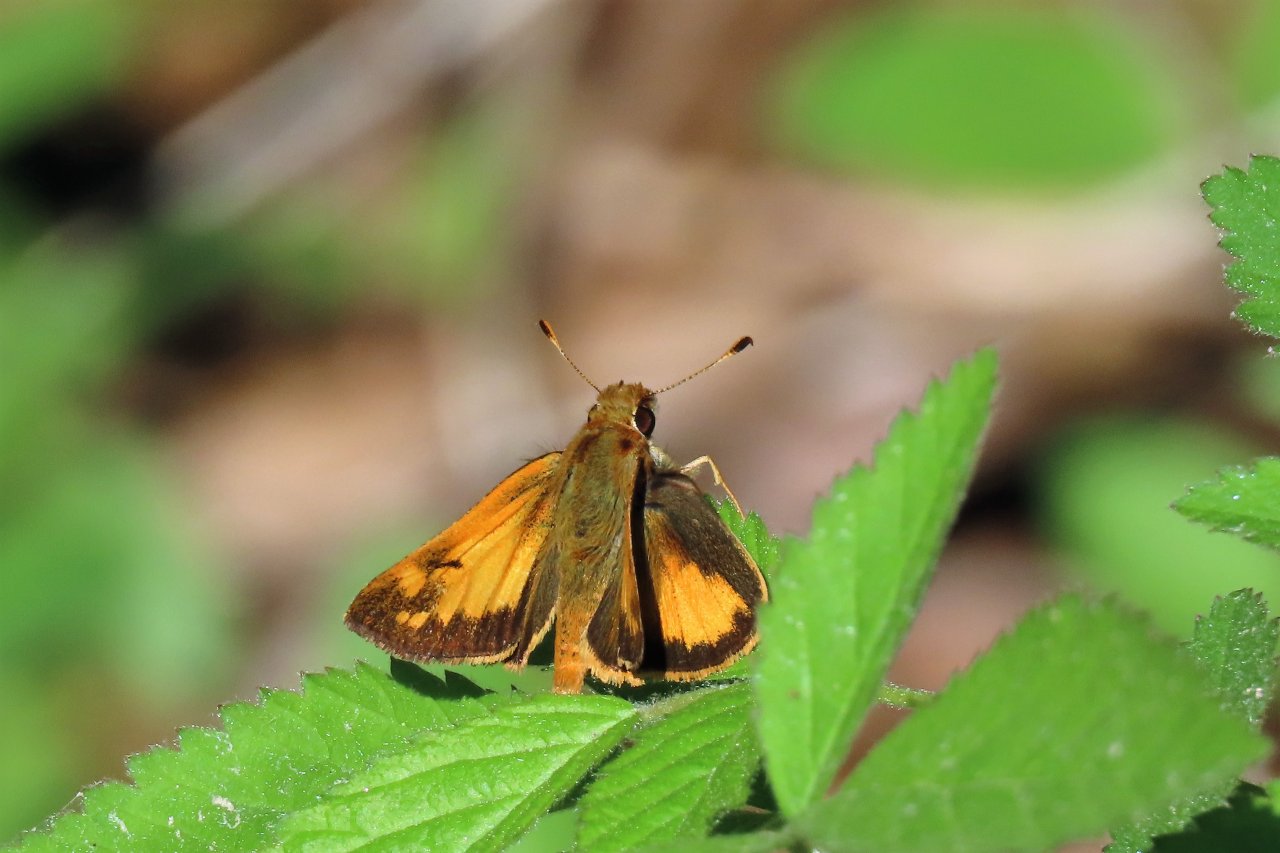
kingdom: Animalia
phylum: Arthropoda
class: Insecta
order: Lepidoptera
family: Hesperiidae
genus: Lon
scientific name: Lon zabulon
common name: Zabulon Skipper
